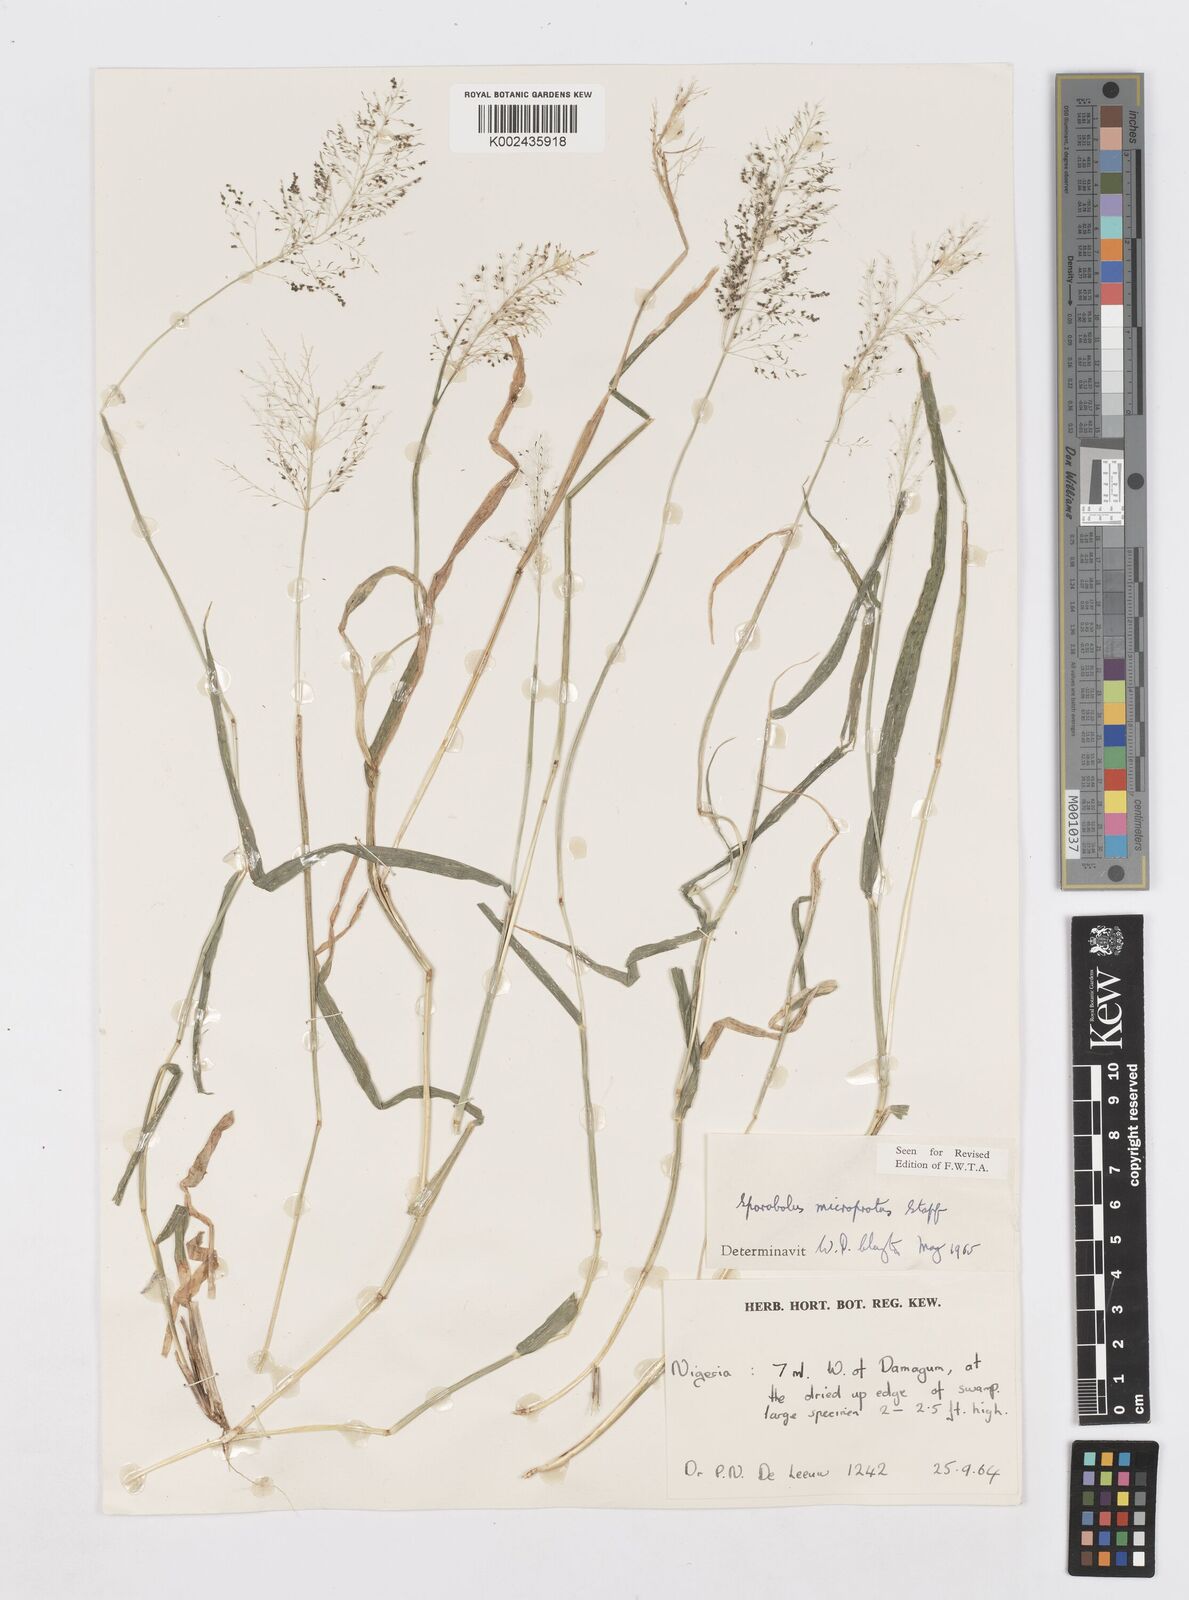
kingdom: Plantae
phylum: Tracheophyta
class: Liliopsida
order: Poales
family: Poaceae
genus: Sporobolus
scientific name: Sporobolus microprotus
